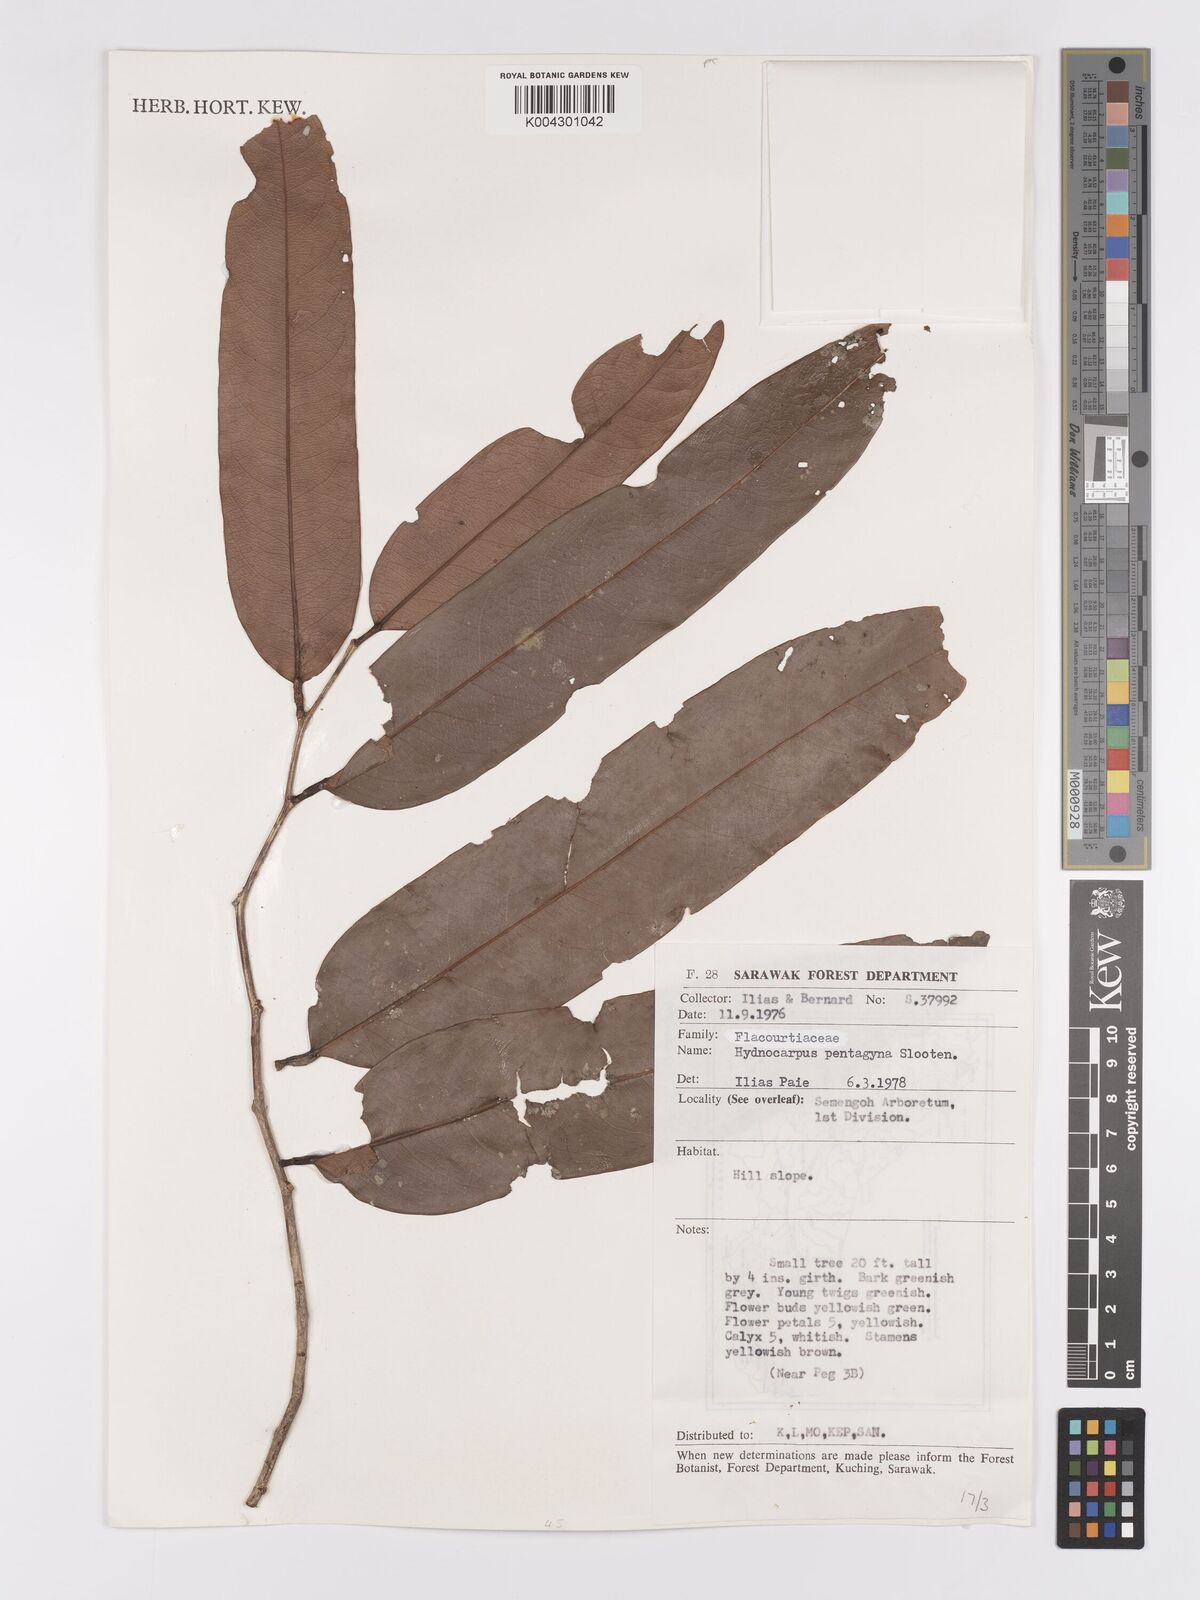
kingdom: Plantae
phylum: Tracheophyta
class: Magnoliopsida
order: Malpighiales
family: Achariaceae
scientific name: Achariaceae
